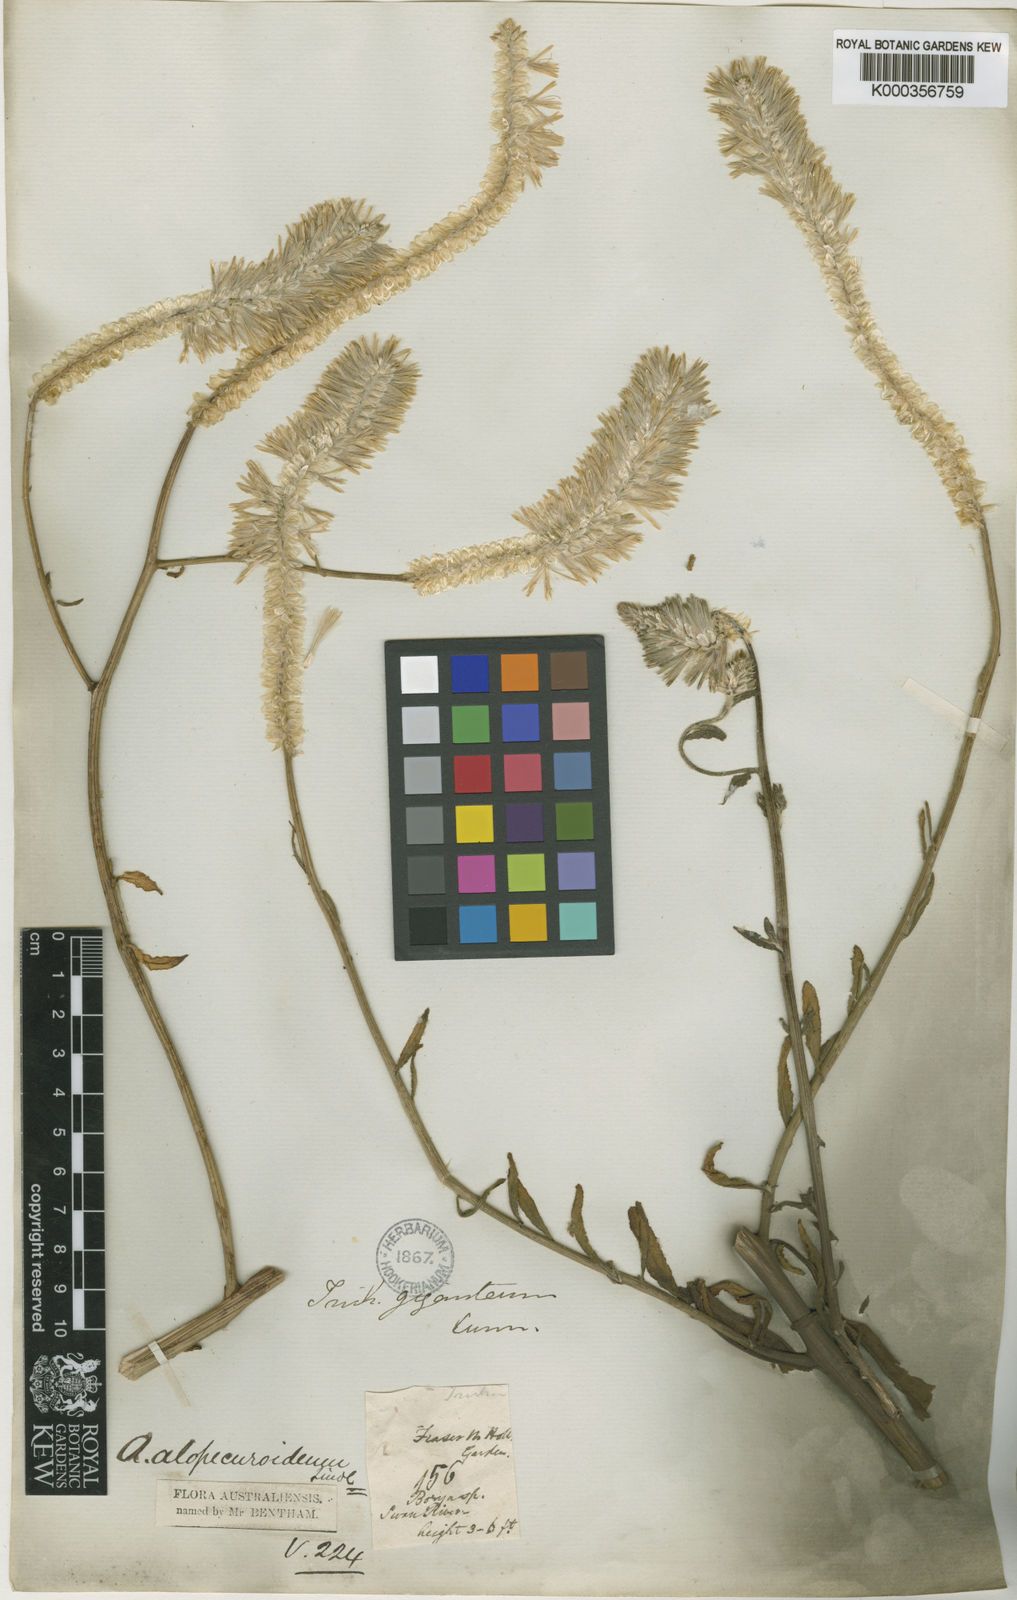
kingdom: Plantae
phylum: Tracheophyta
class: Magnoliopsida
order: Caryophyllales
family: Amaranthaceae
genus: Ptilotus
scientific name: Ptilotus polystachyus
